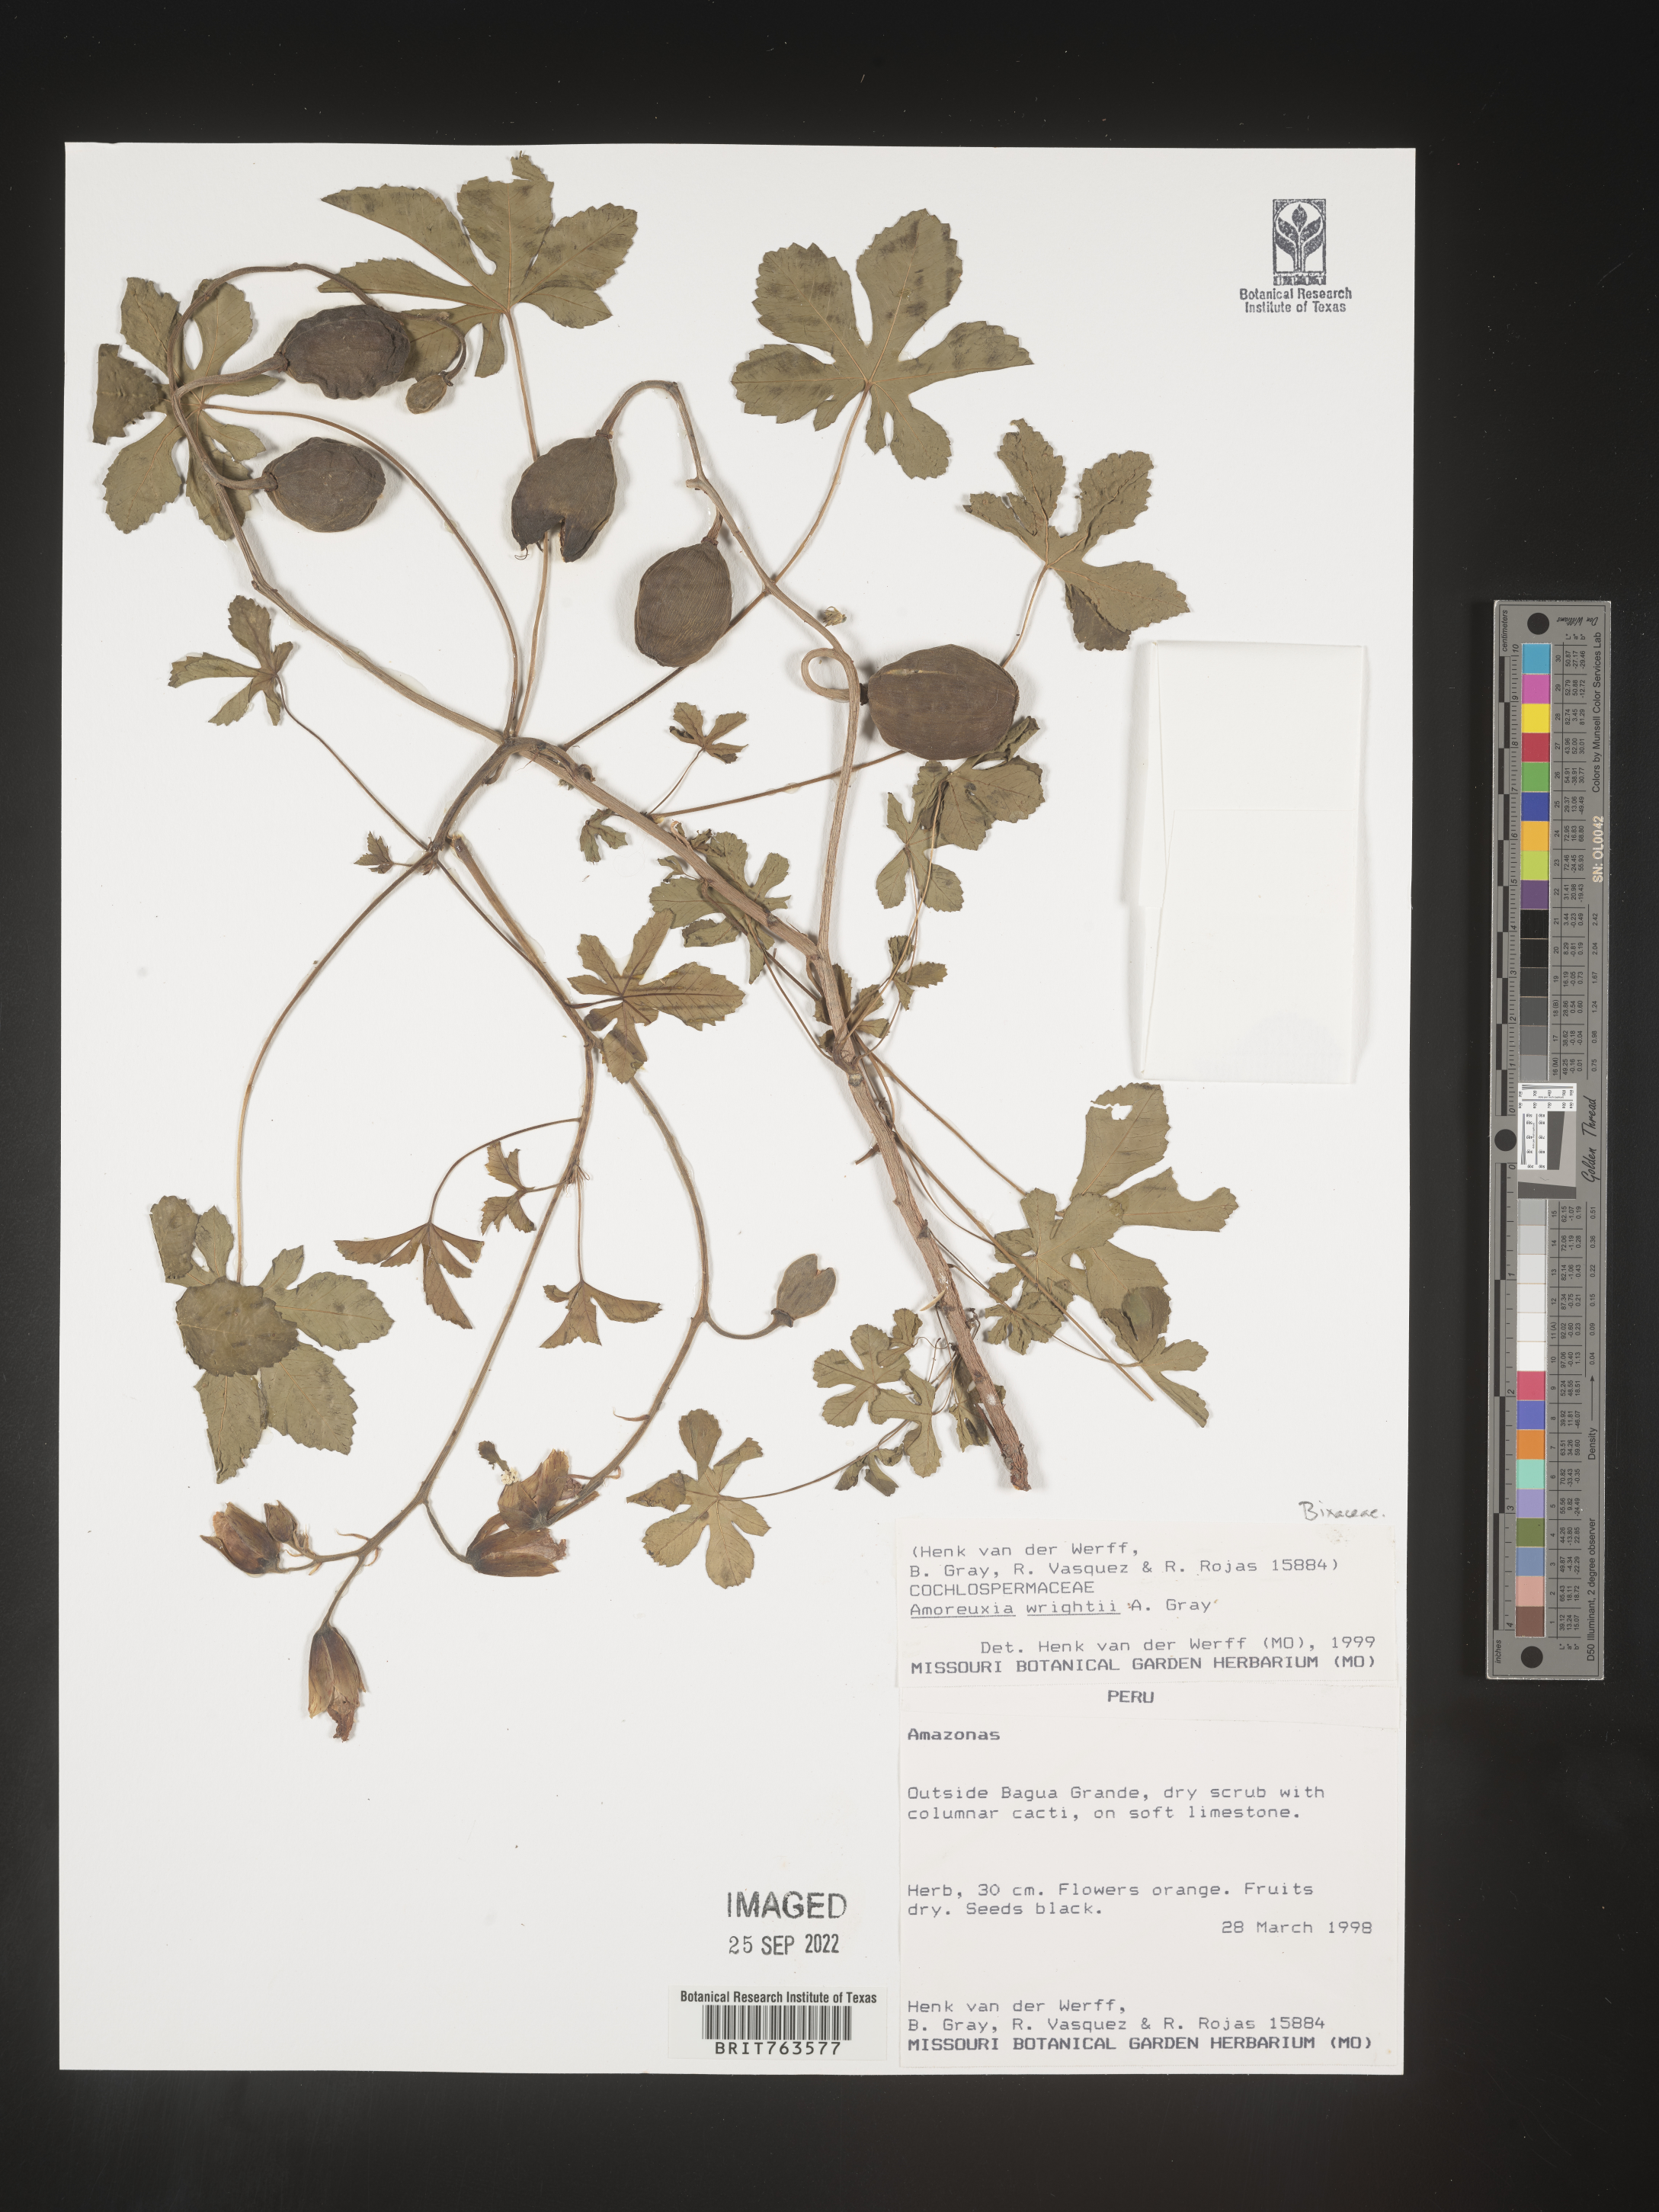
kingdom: Plantae
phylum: Tracheophyta
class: Magnoliopsida
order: Malvales
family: Cochlospermaceae
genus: Cochlospermum
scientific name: Cochlospermum wrightii
